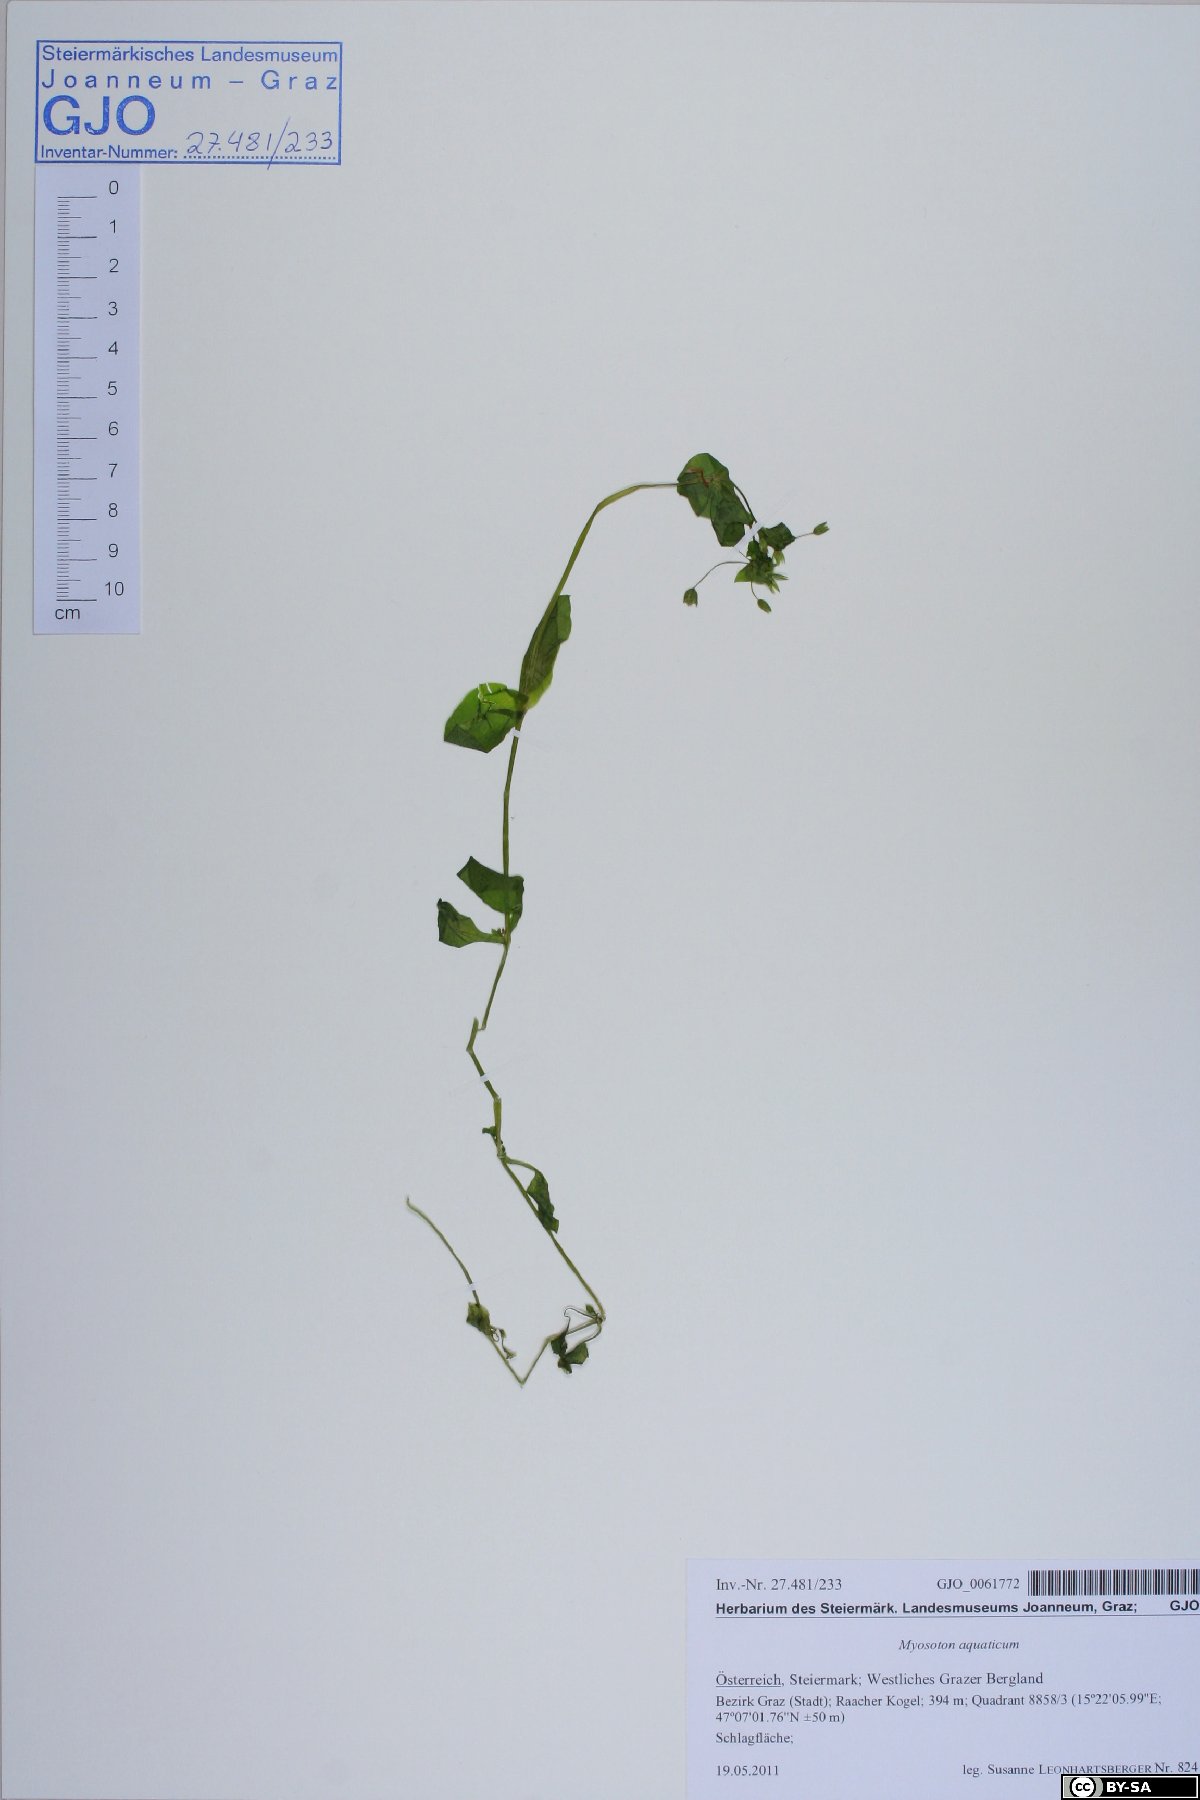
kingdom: Plantae
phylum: Tracheophyta
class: Magnoliopsida
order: Caryophyllales
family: Caryophyllaceae
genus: Stellaria
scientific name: Stellaria aquatica
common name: Water chickweed
